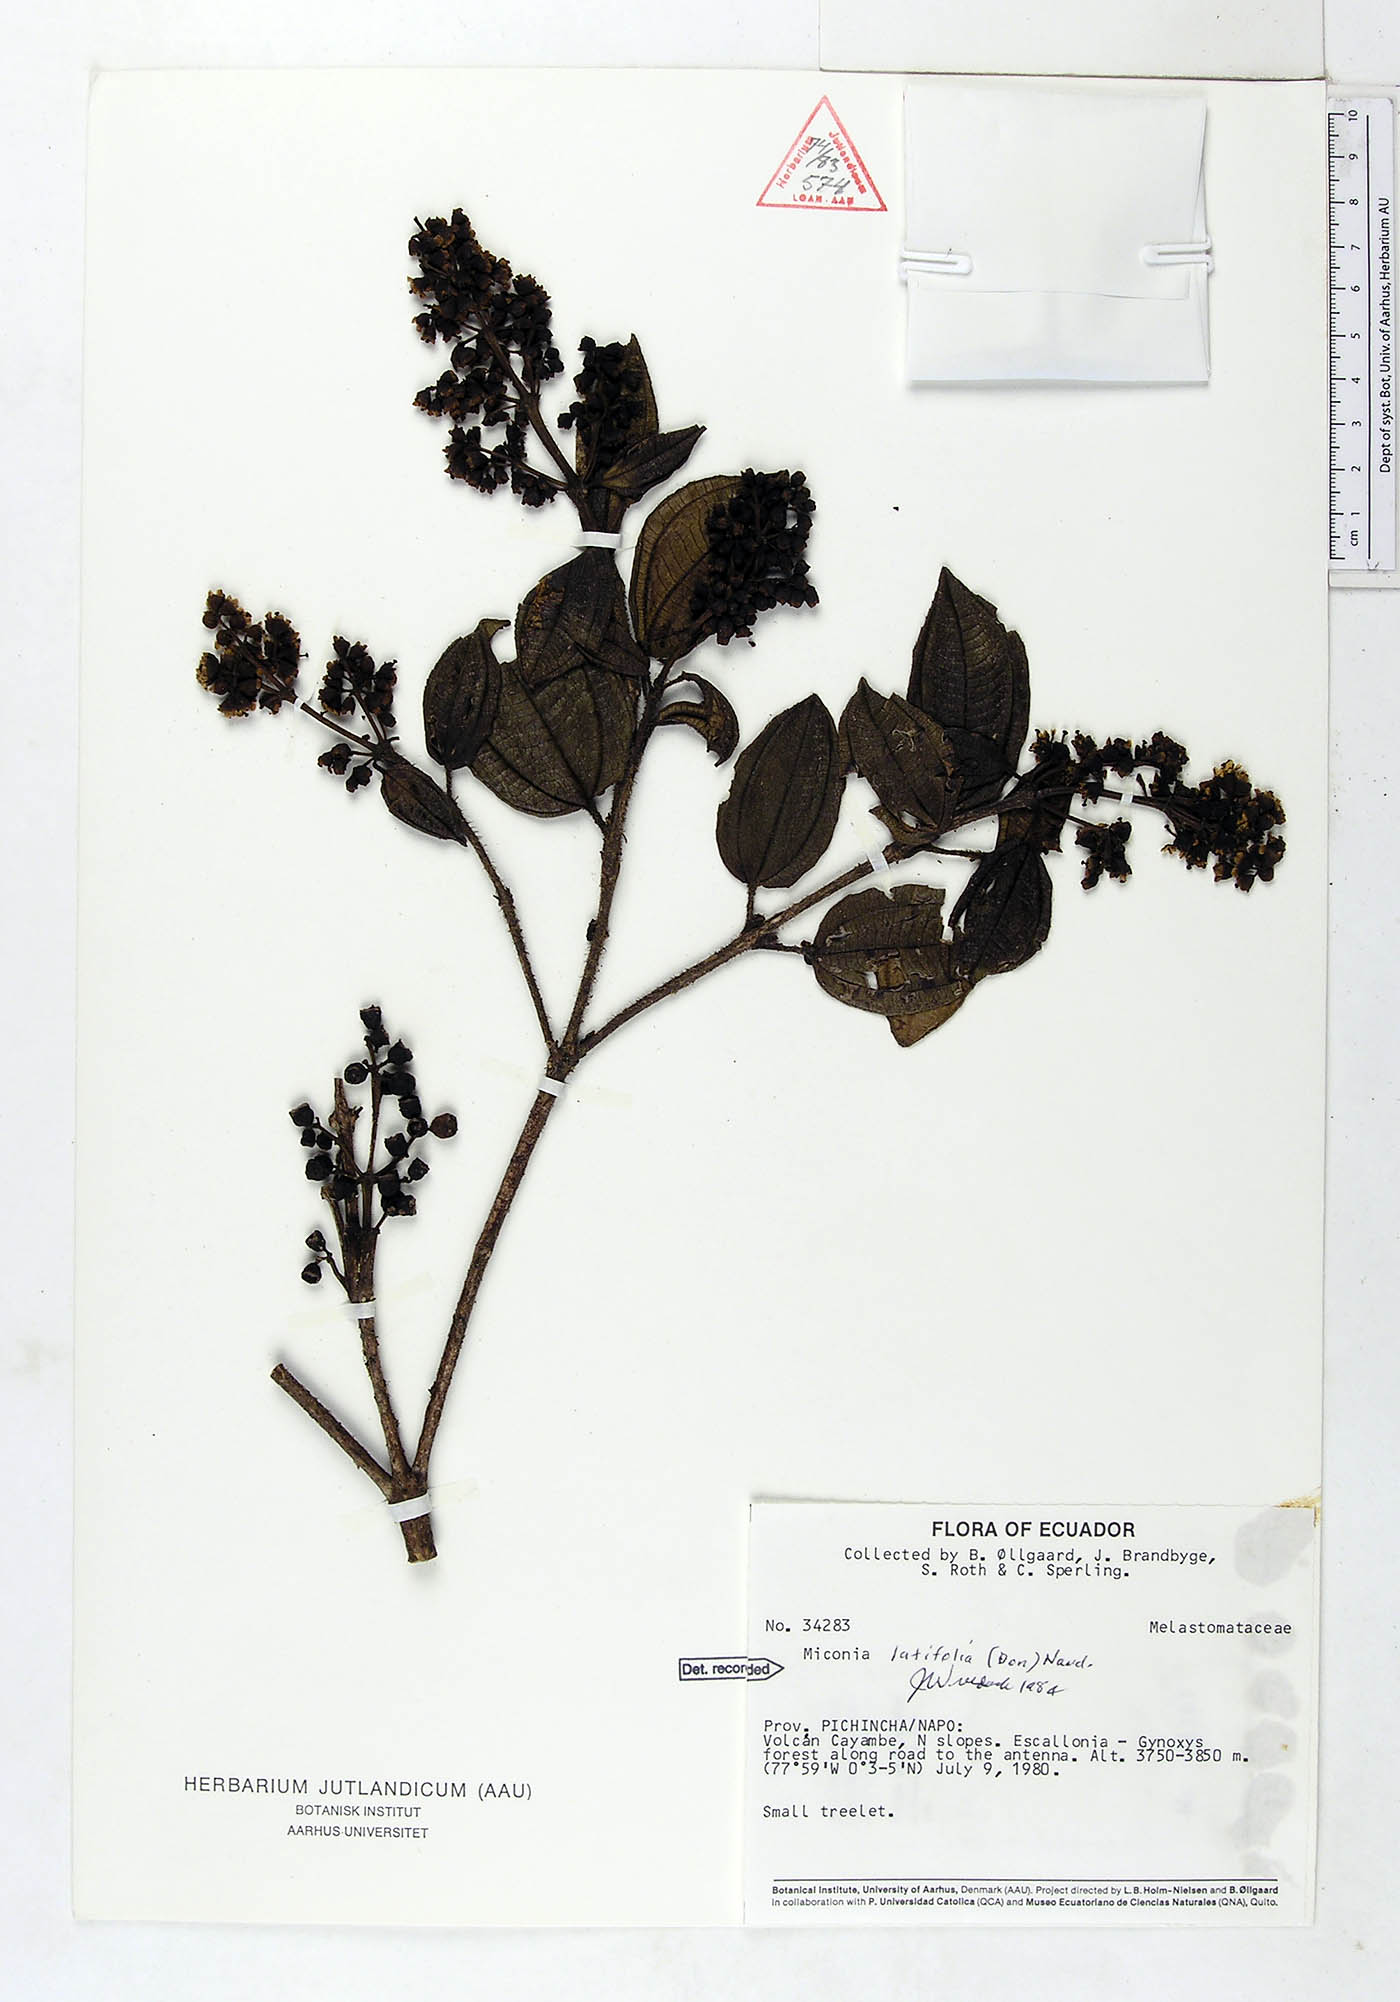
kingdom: Plantae
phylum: Tracheophyta
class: Magnoliopsida
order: Myrtales
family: Melastomataceae
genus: Miconia
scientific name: Miconia latifolia
